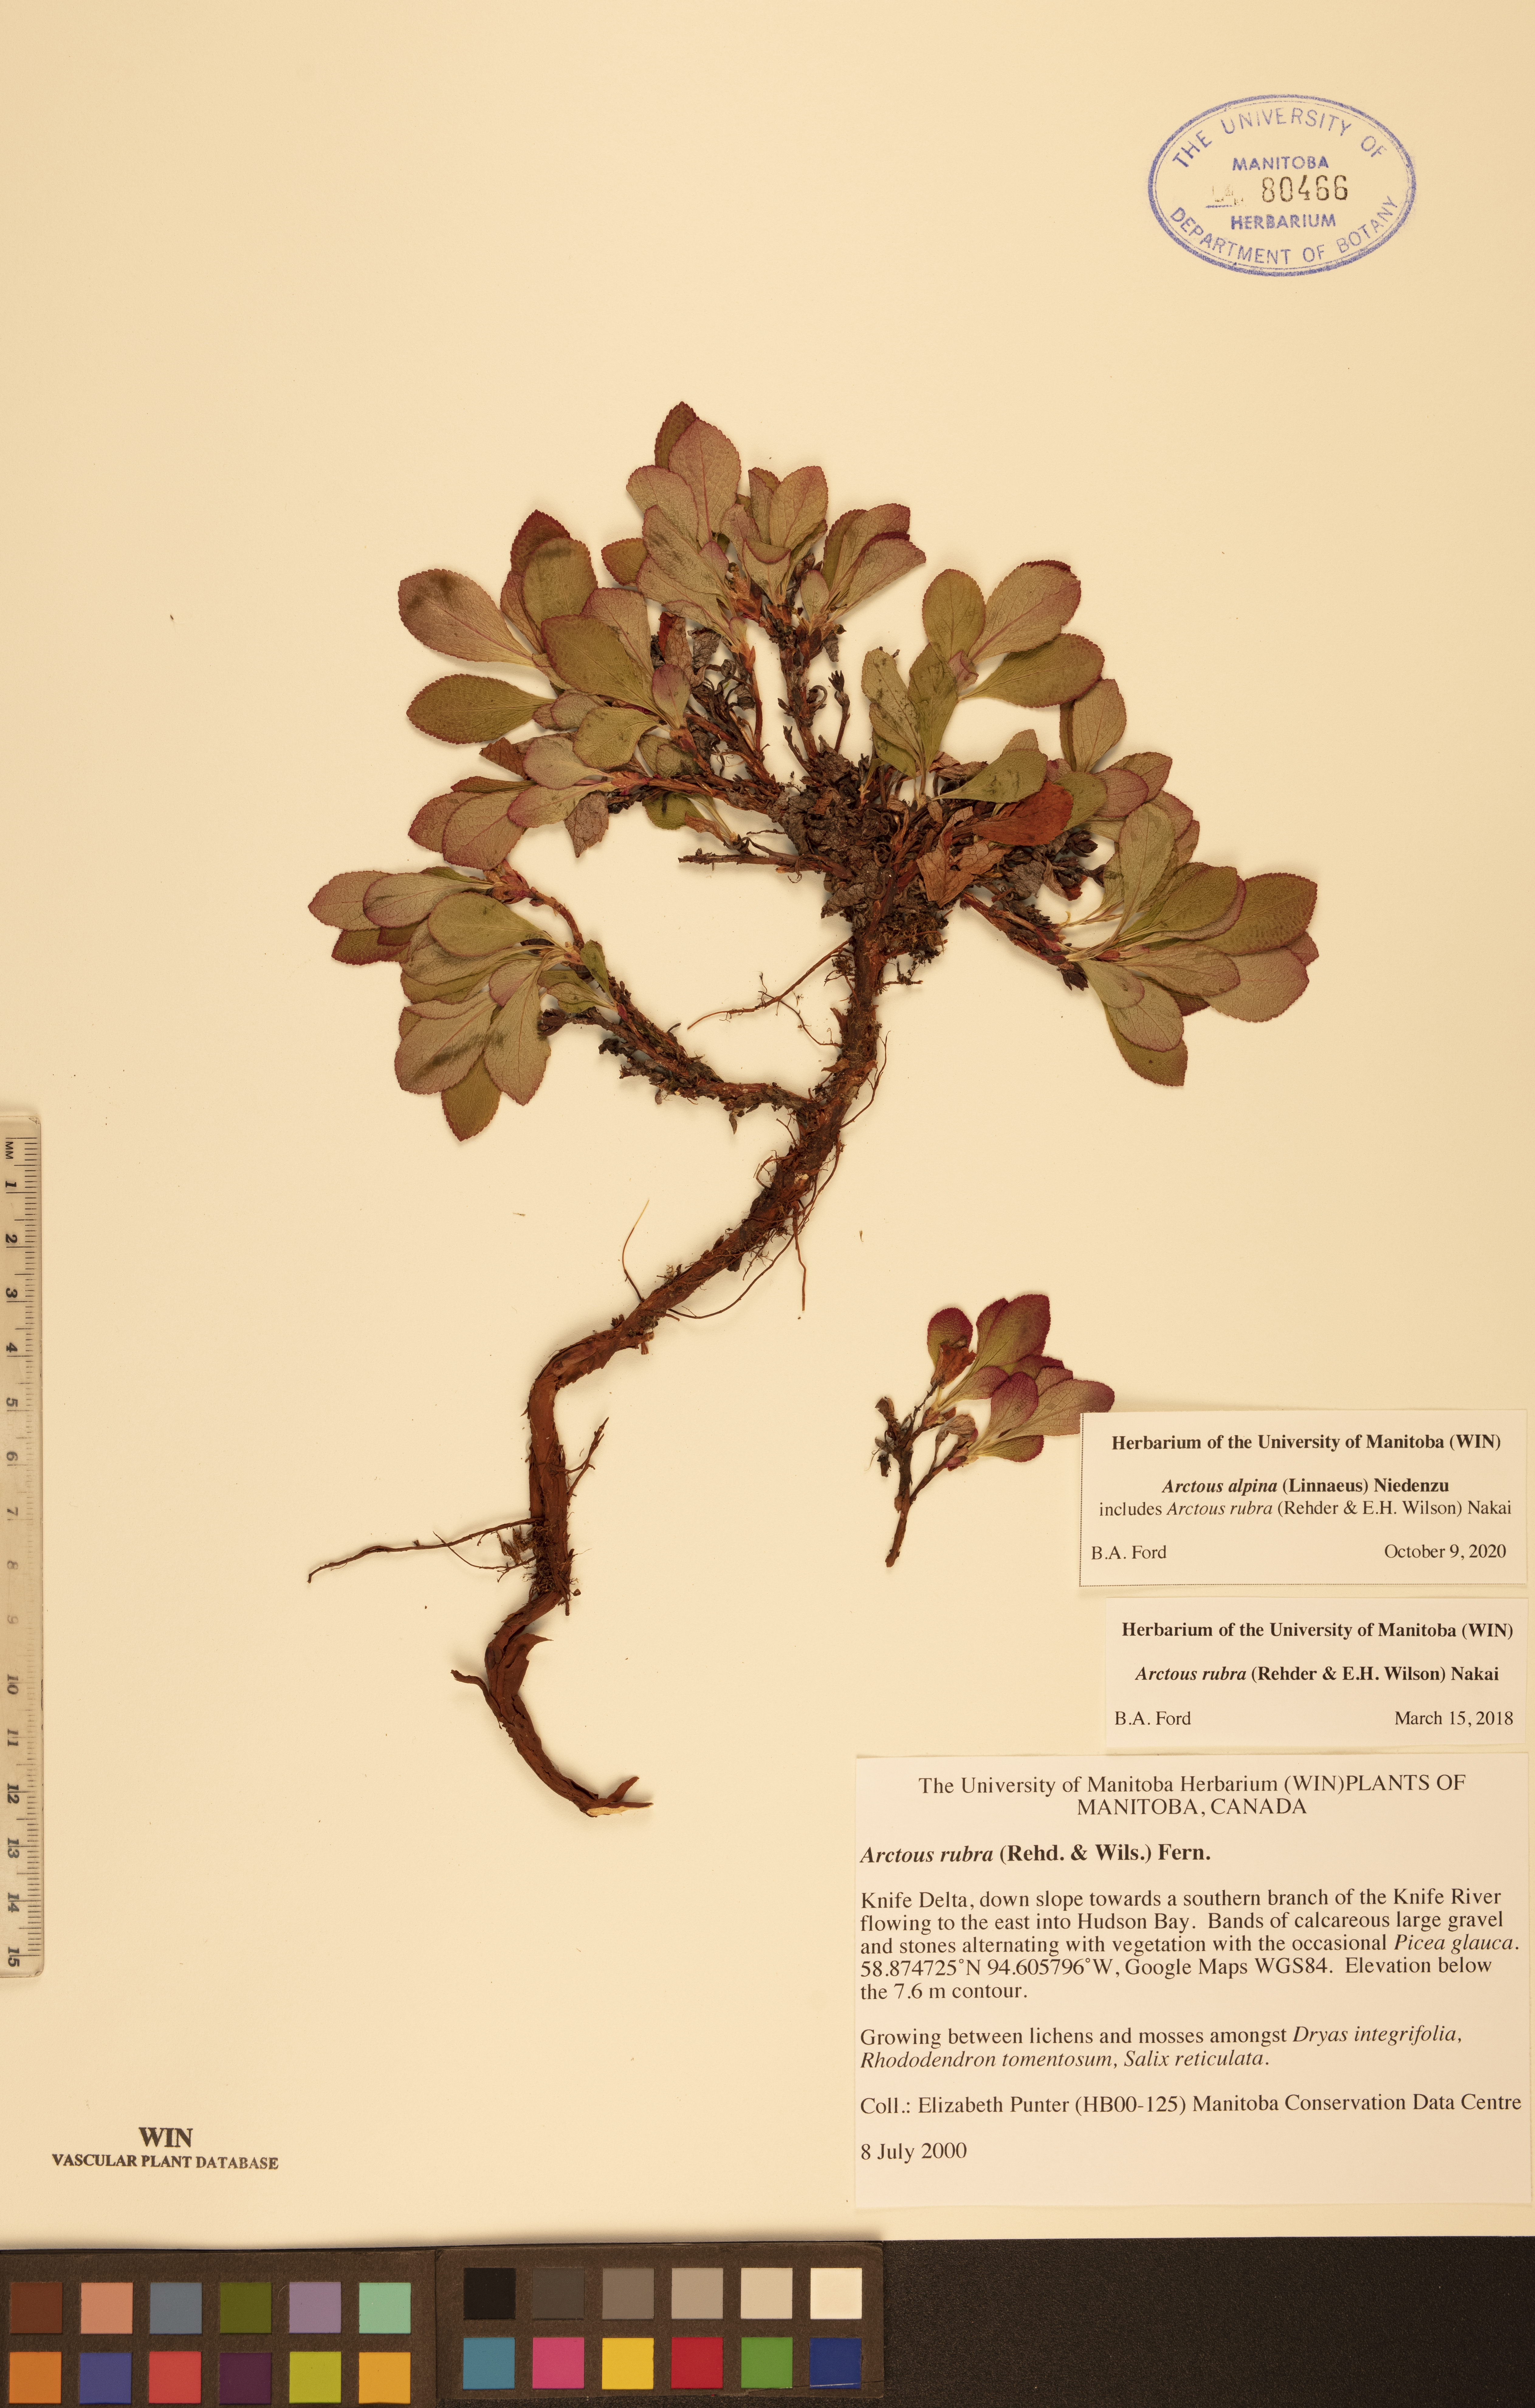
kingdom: Plantae
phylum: Tracheophyta
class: Magnoliopsida
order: Ericales
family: Ericaceae
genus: Arctostaphylos
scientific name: Arctostaphylos alpinus
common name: Alpine bearberry
